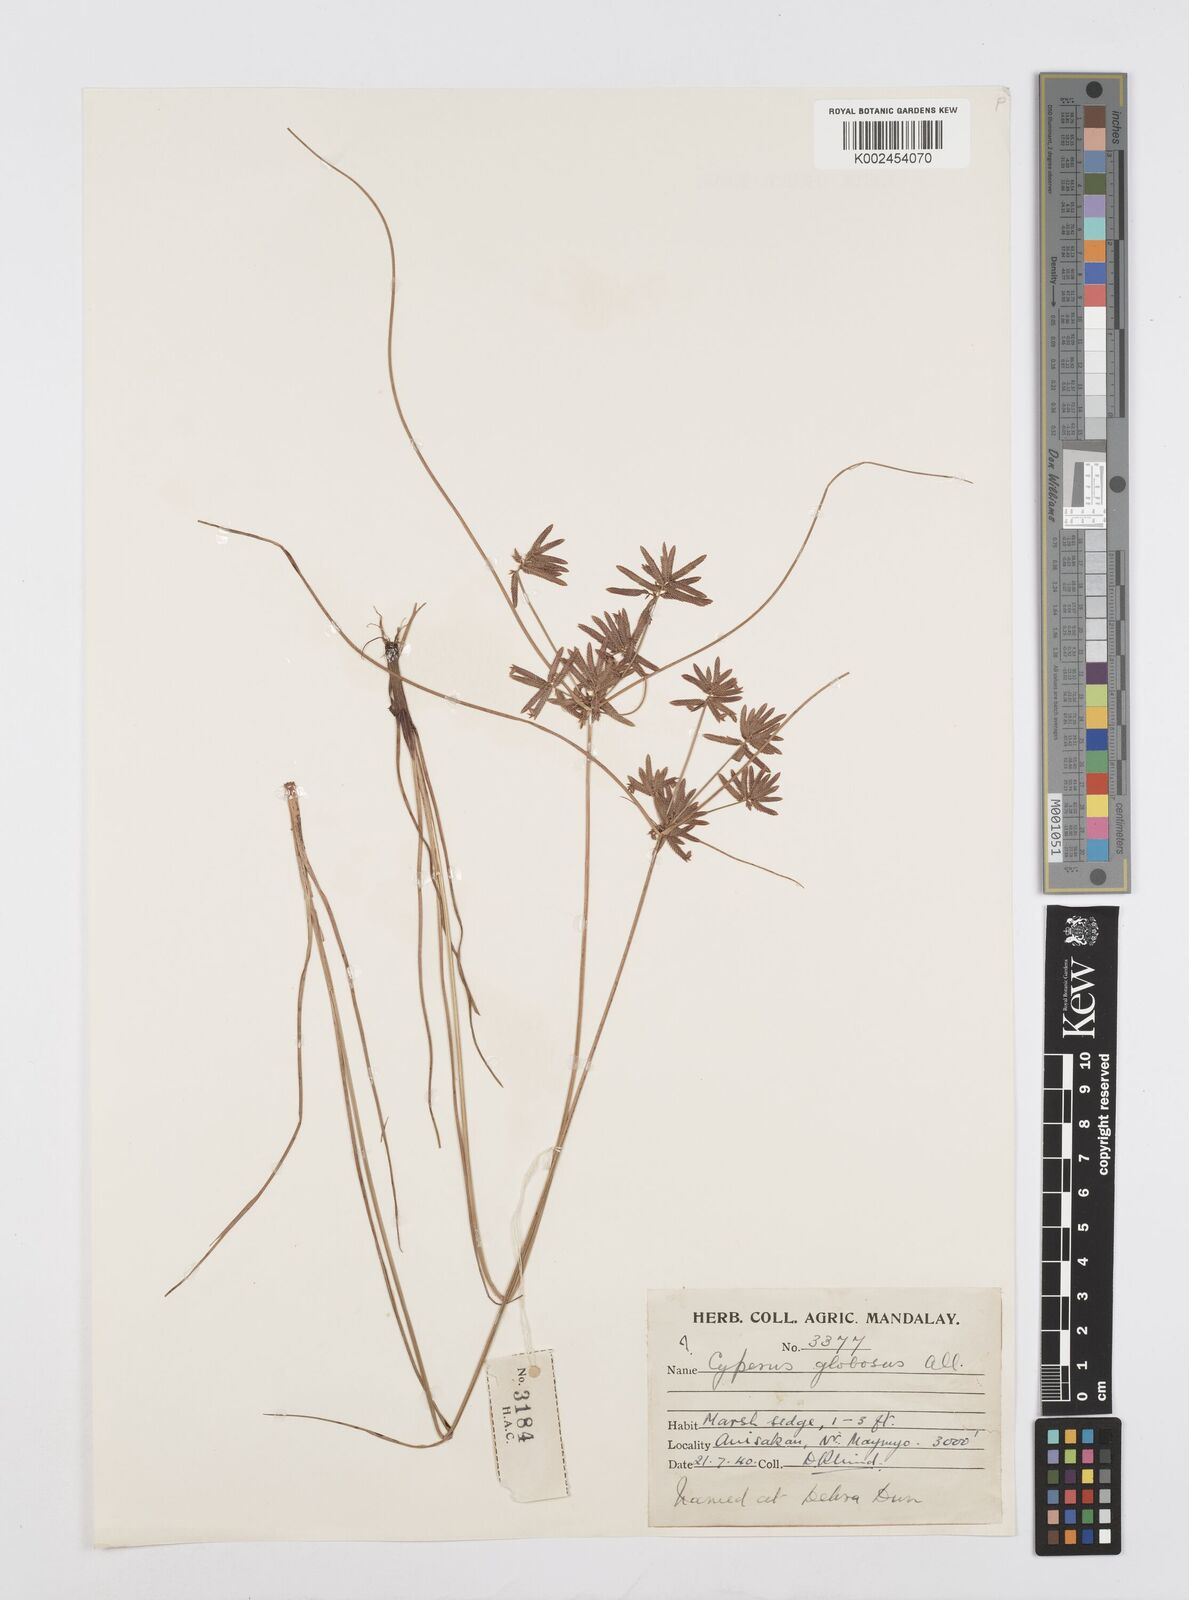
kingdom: Plantae
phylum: Tracheophyta
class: Liliopsida
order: Poales
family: Cyperaceae
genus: Cyperus
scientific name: Cyperus flavidus
